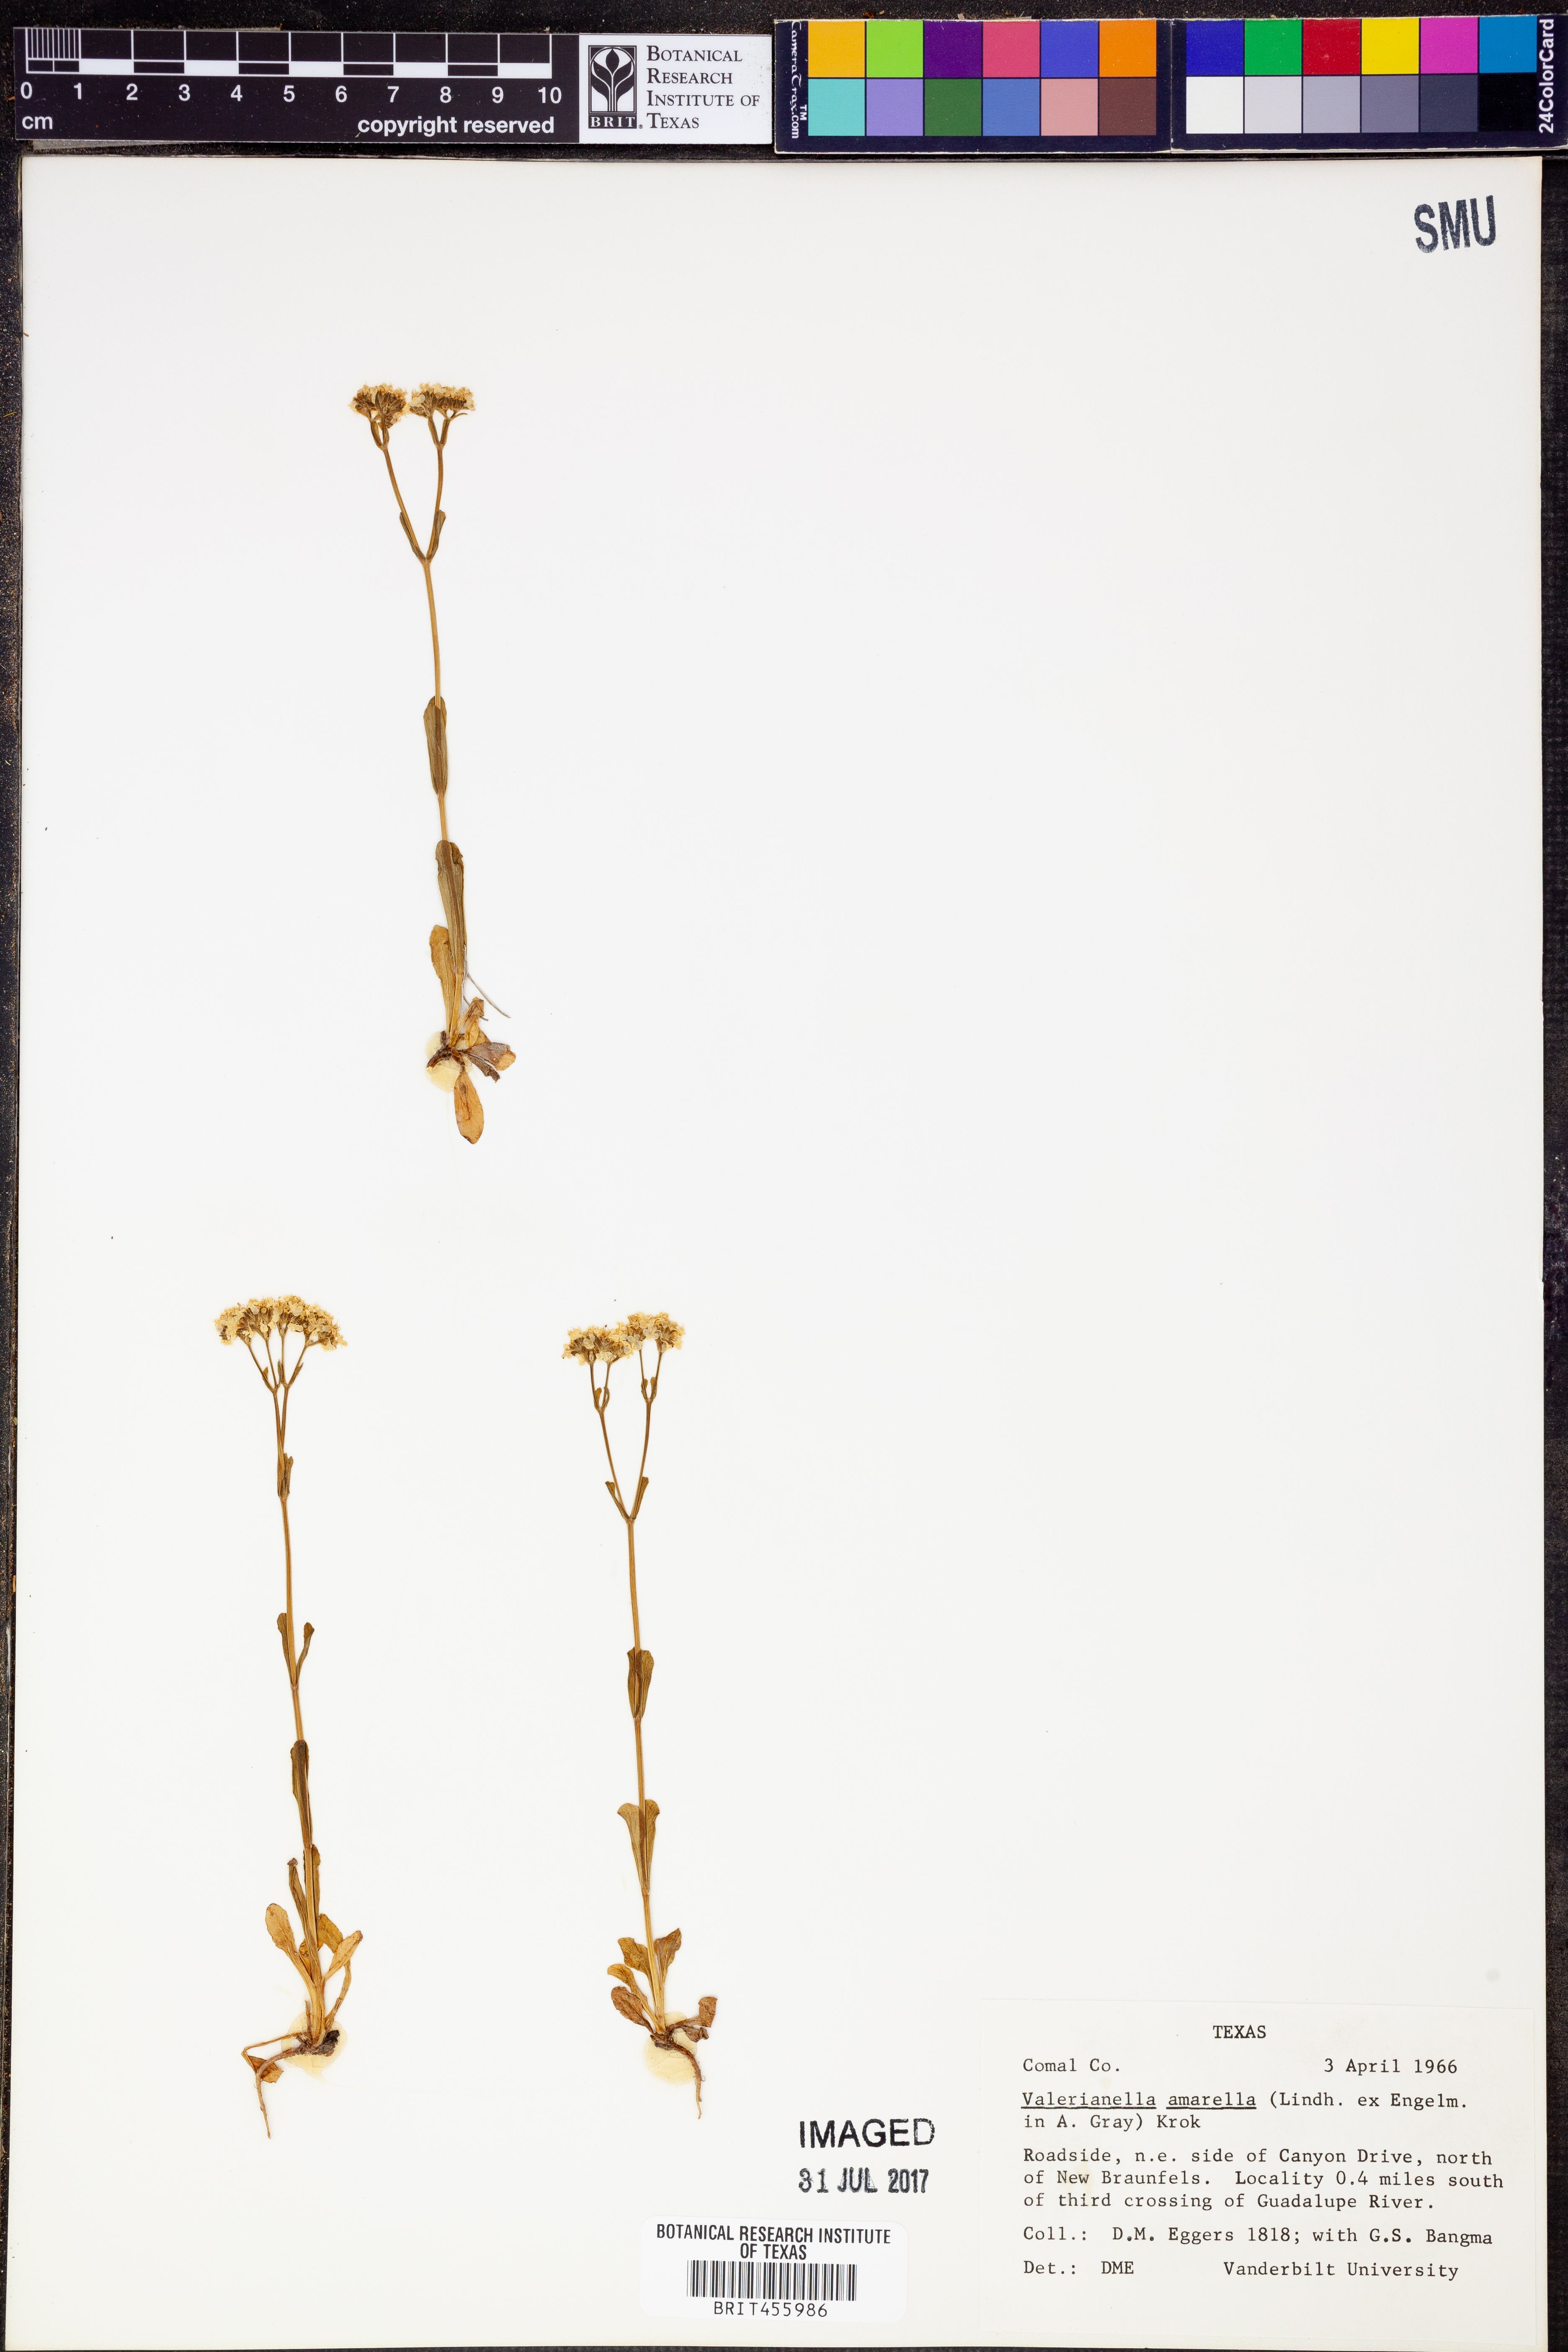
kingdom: Plantae
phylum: Tracheophyta
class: Magnoliopsida
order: Dipsacales
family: Caprifoliaceae
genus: Valerianella
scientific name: Valerianella amarella
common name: Hariy cornsalad
